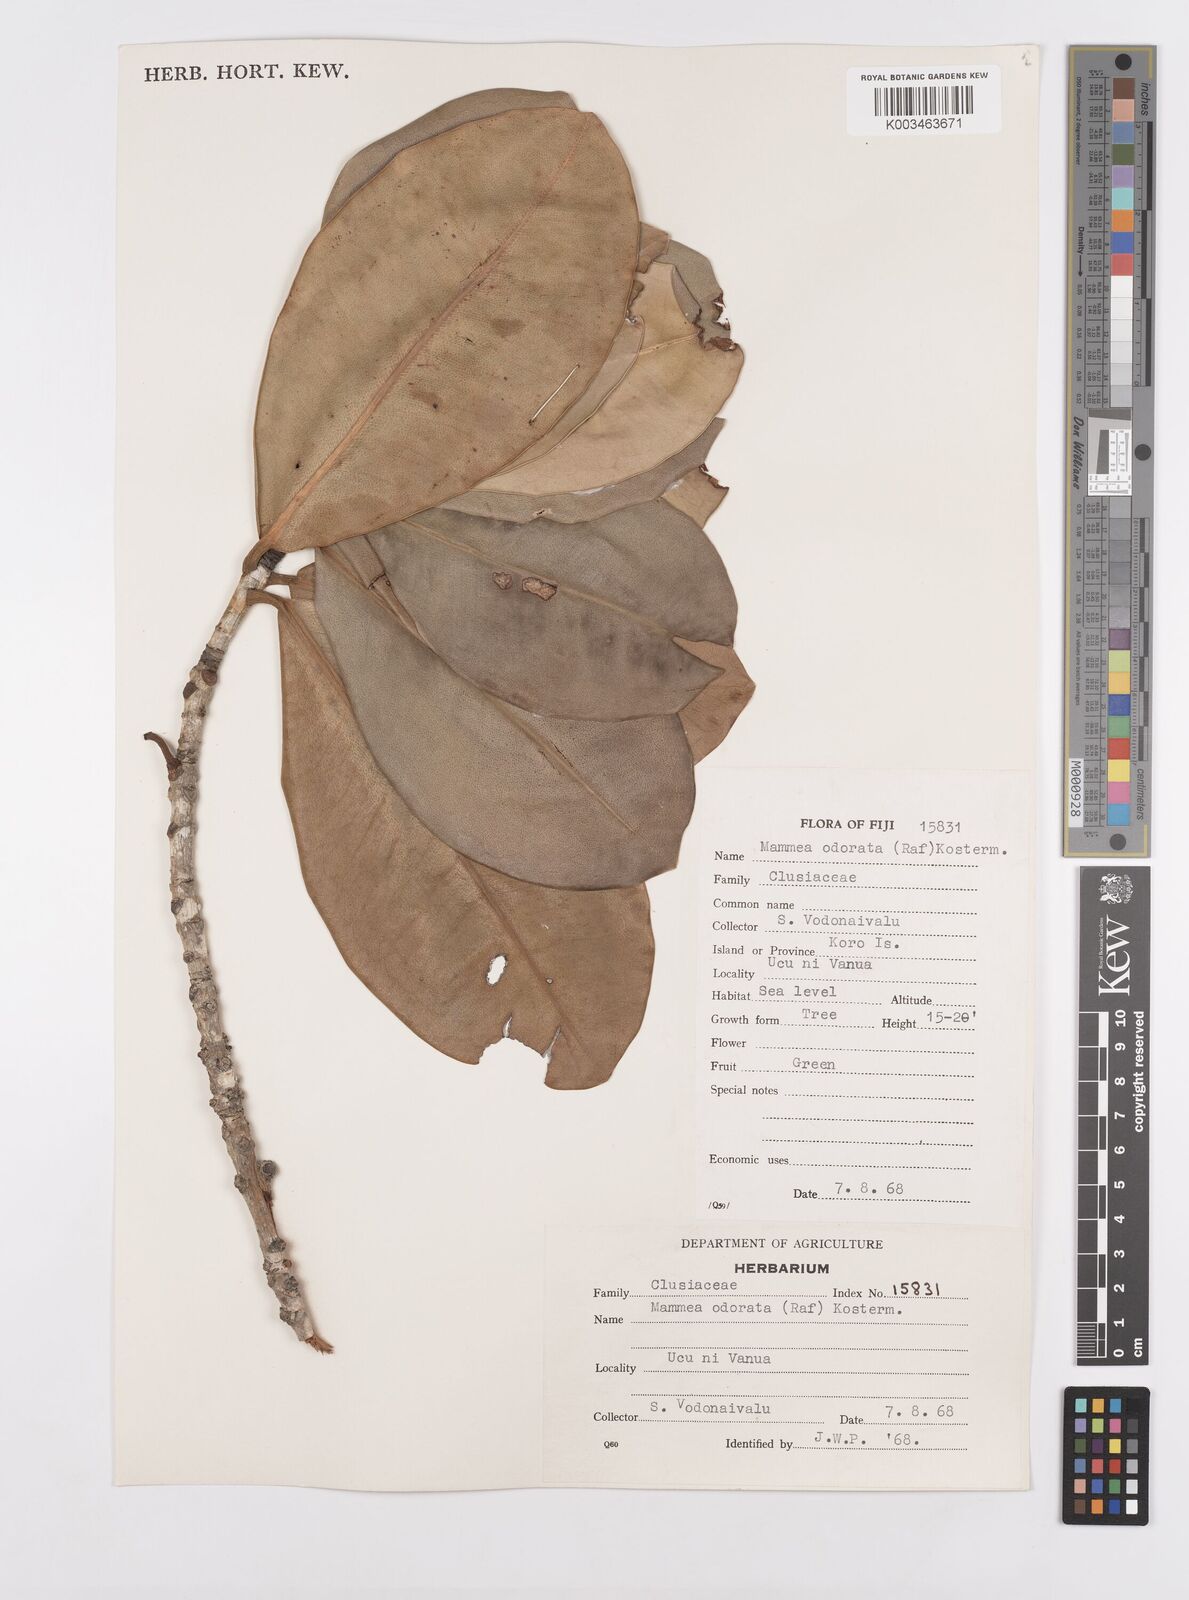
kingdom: Plantae
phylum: Tracheophyta
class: Magnoliopsida
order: Malpighiales
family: Calophyllaceae
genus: Mammea
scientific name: Mammea odorata
